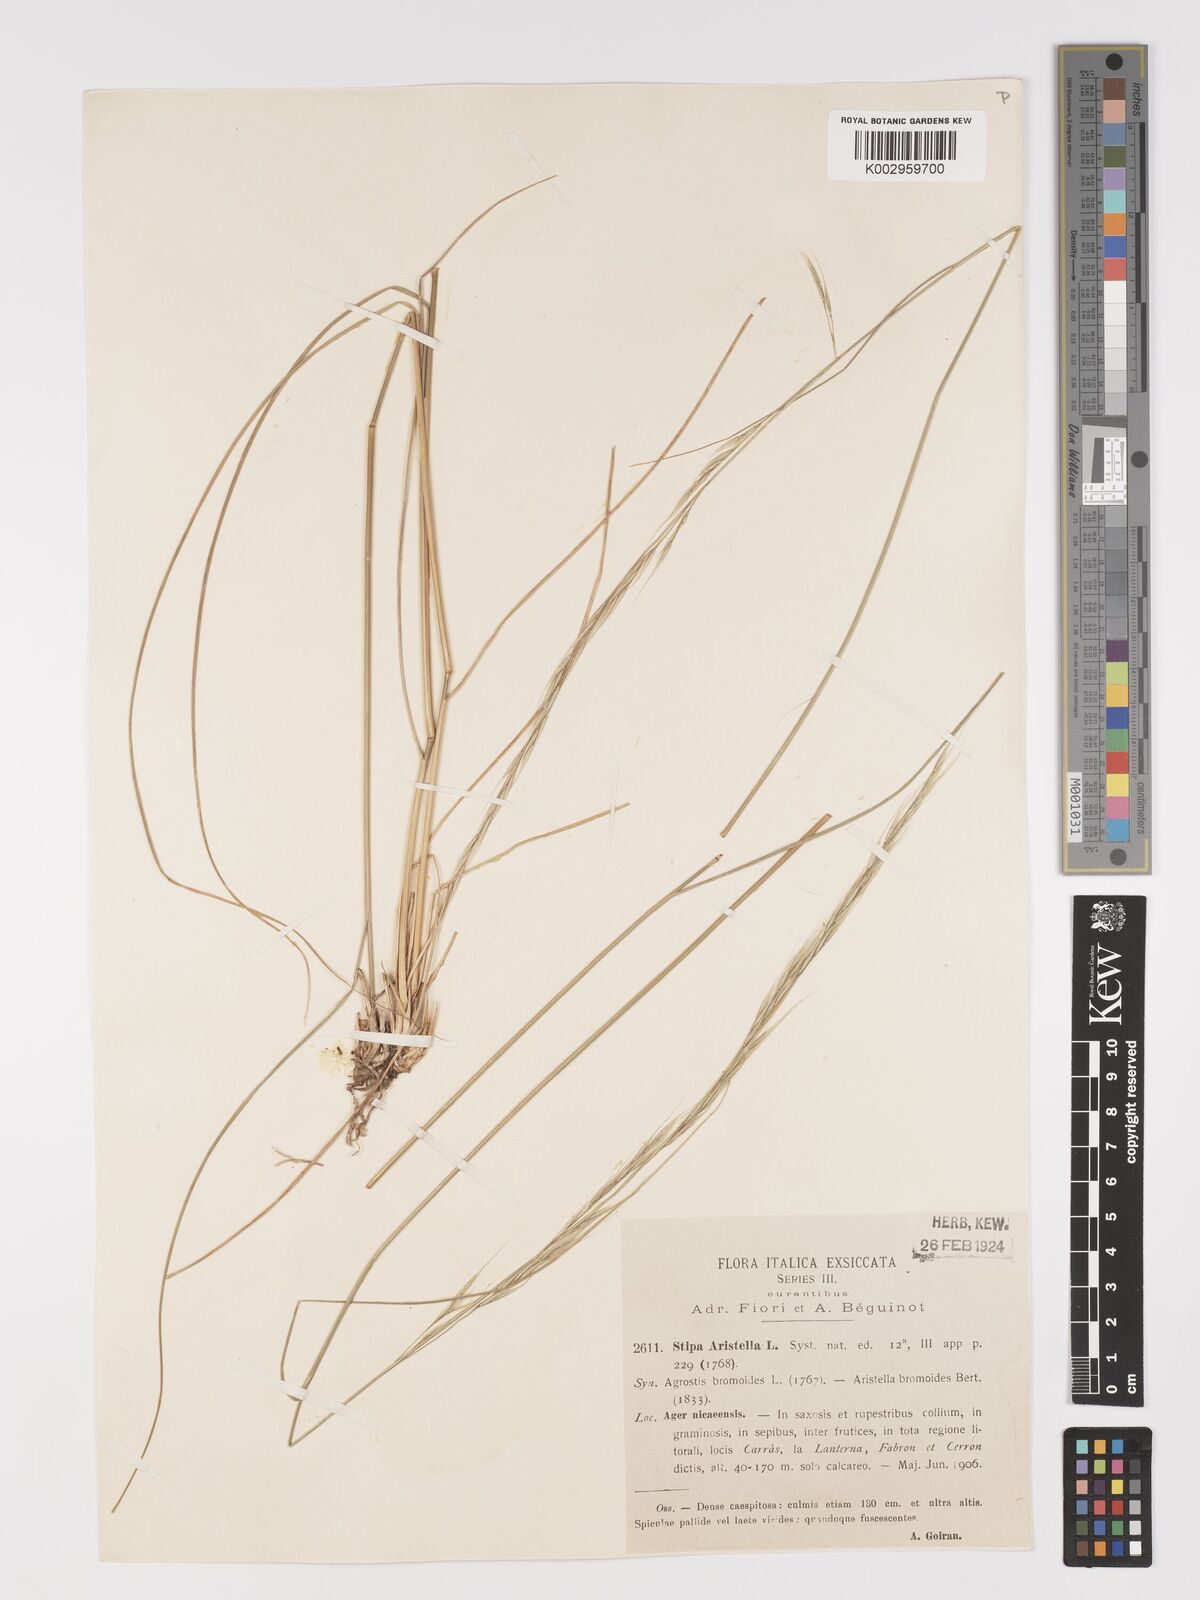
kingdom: Plantae
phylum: Tracheophyta
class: Liliopsida
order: Poales
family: Poaceae
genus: Achnatherum
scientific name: Achnatherum bromoides
